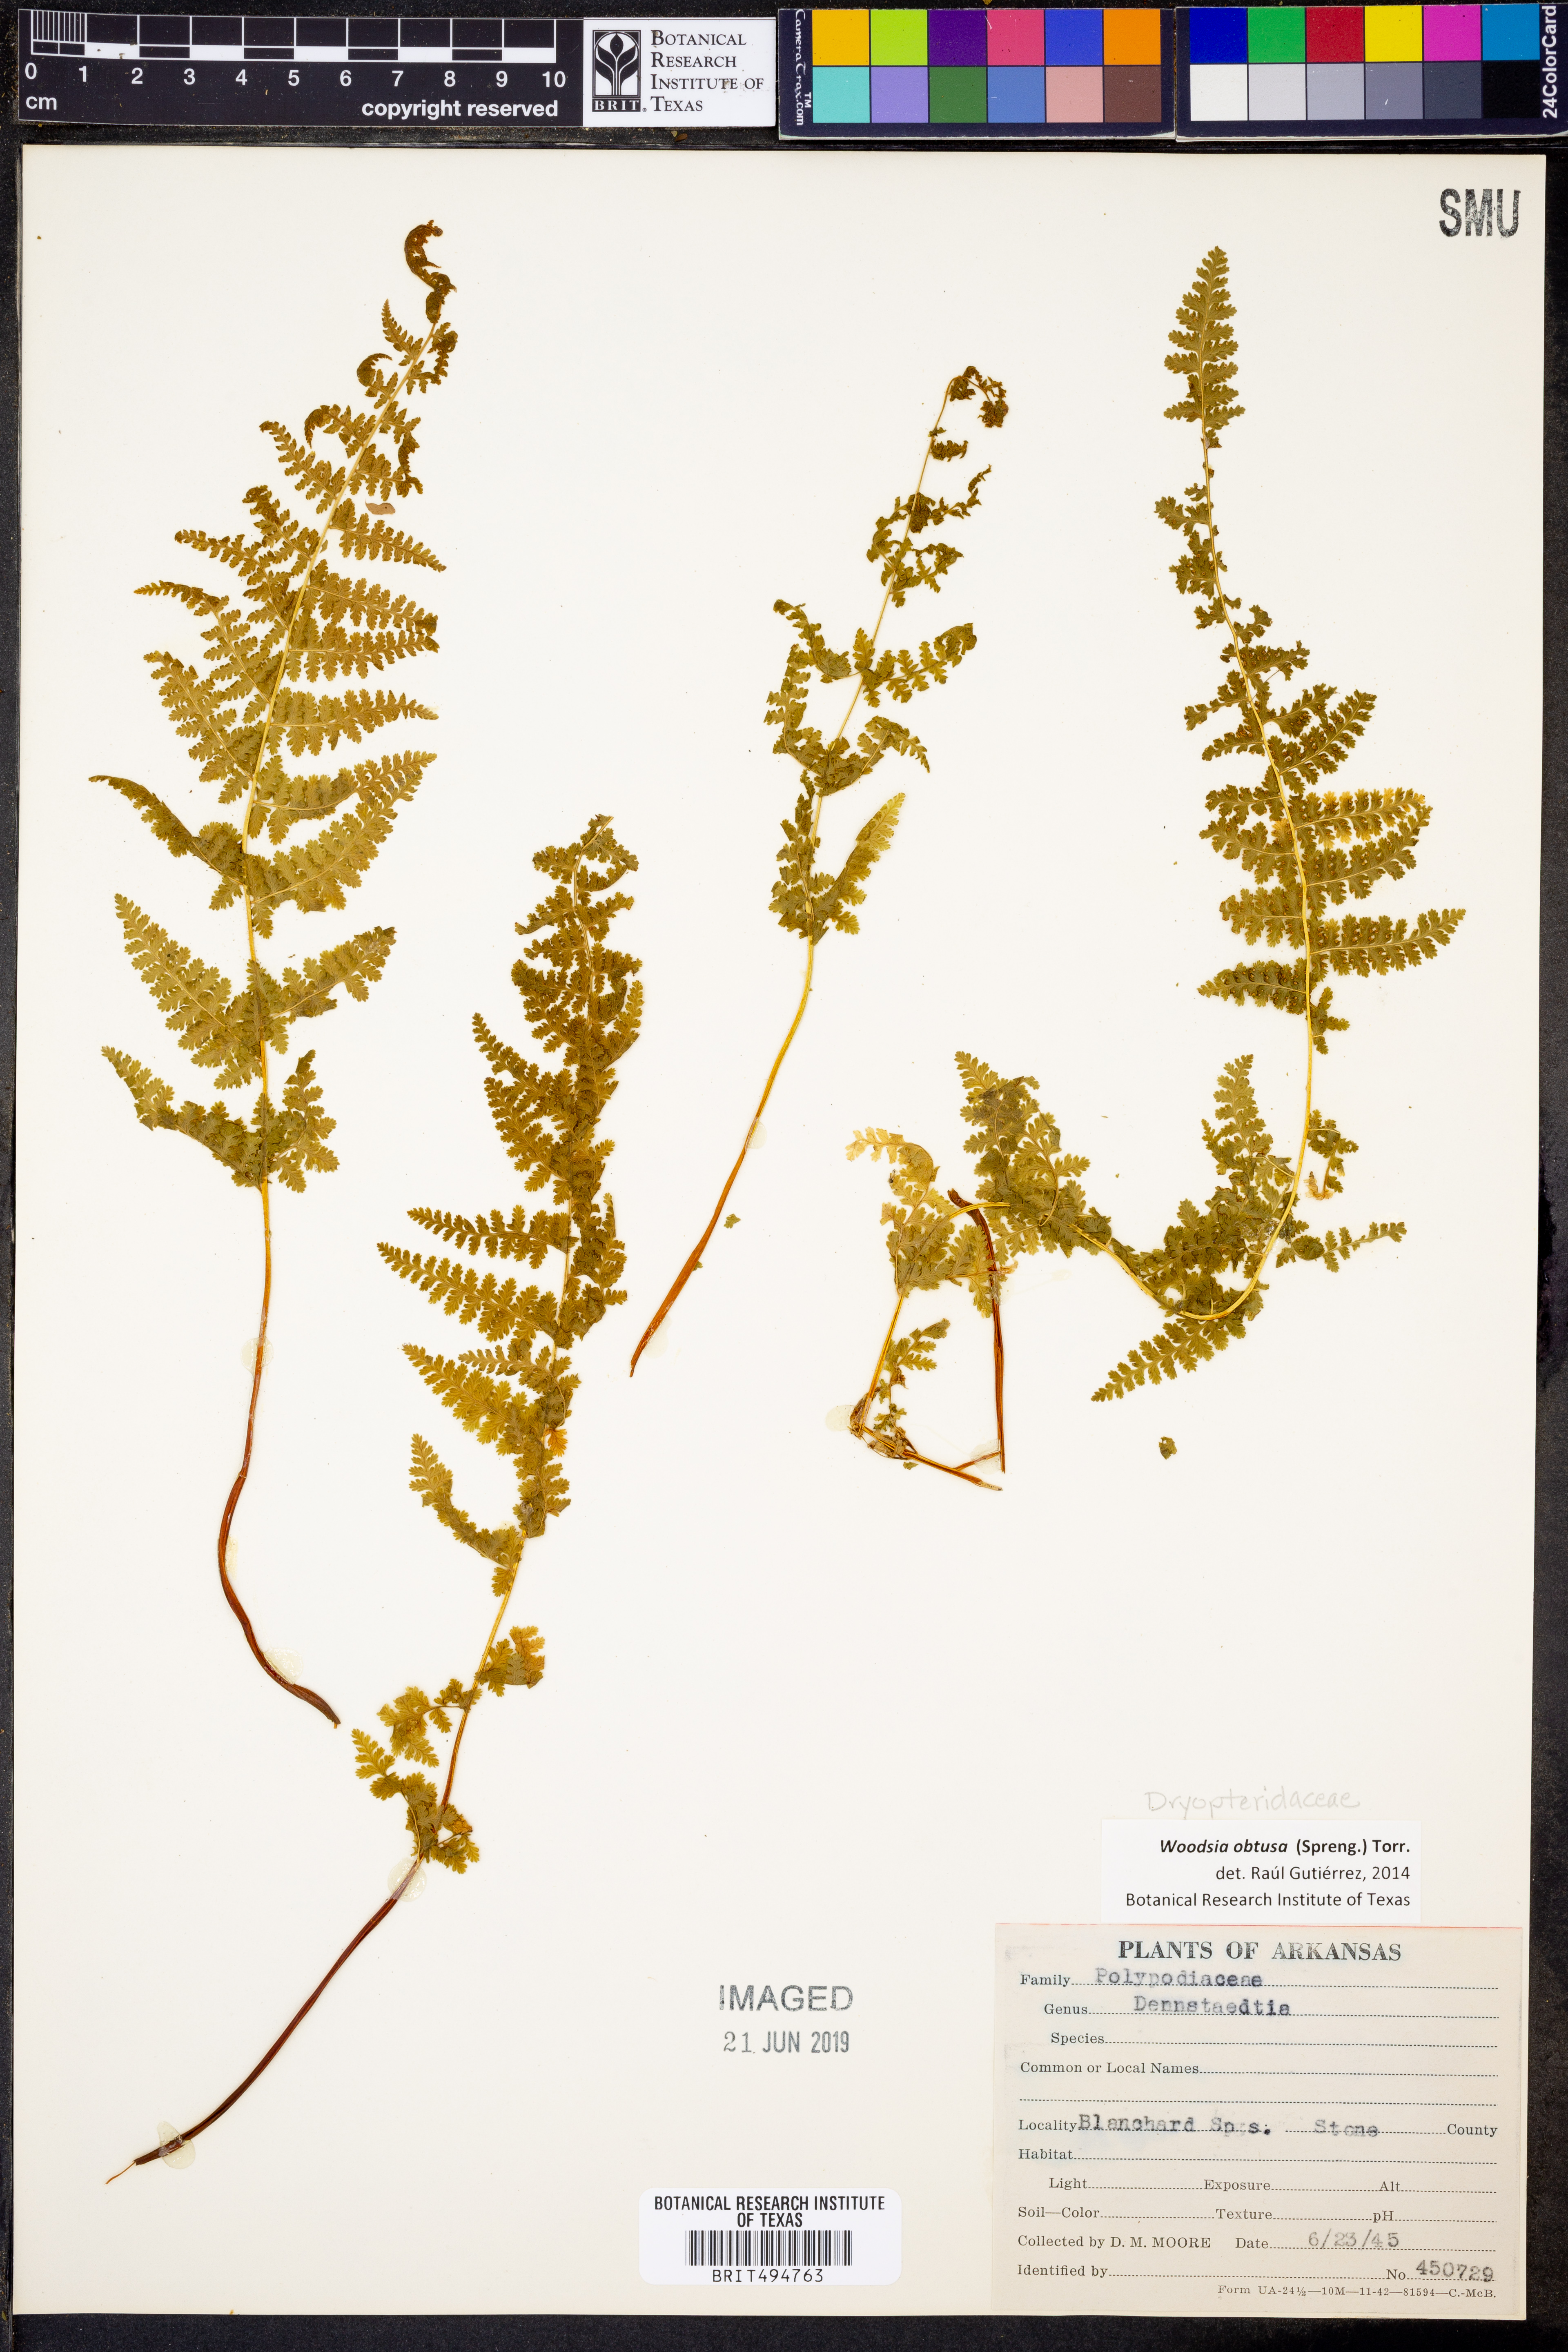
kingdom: Plantae
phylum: Tracheophyta
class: Polypodiopsida
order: Polypodiales
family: Woodsiaceae
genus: Physematium
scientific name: Physematium obtusum
